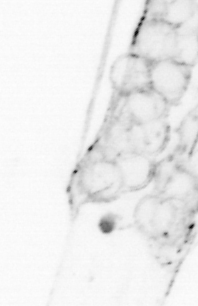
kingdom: Animalia
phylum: Chaetognatha
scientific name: Chaetognatha
